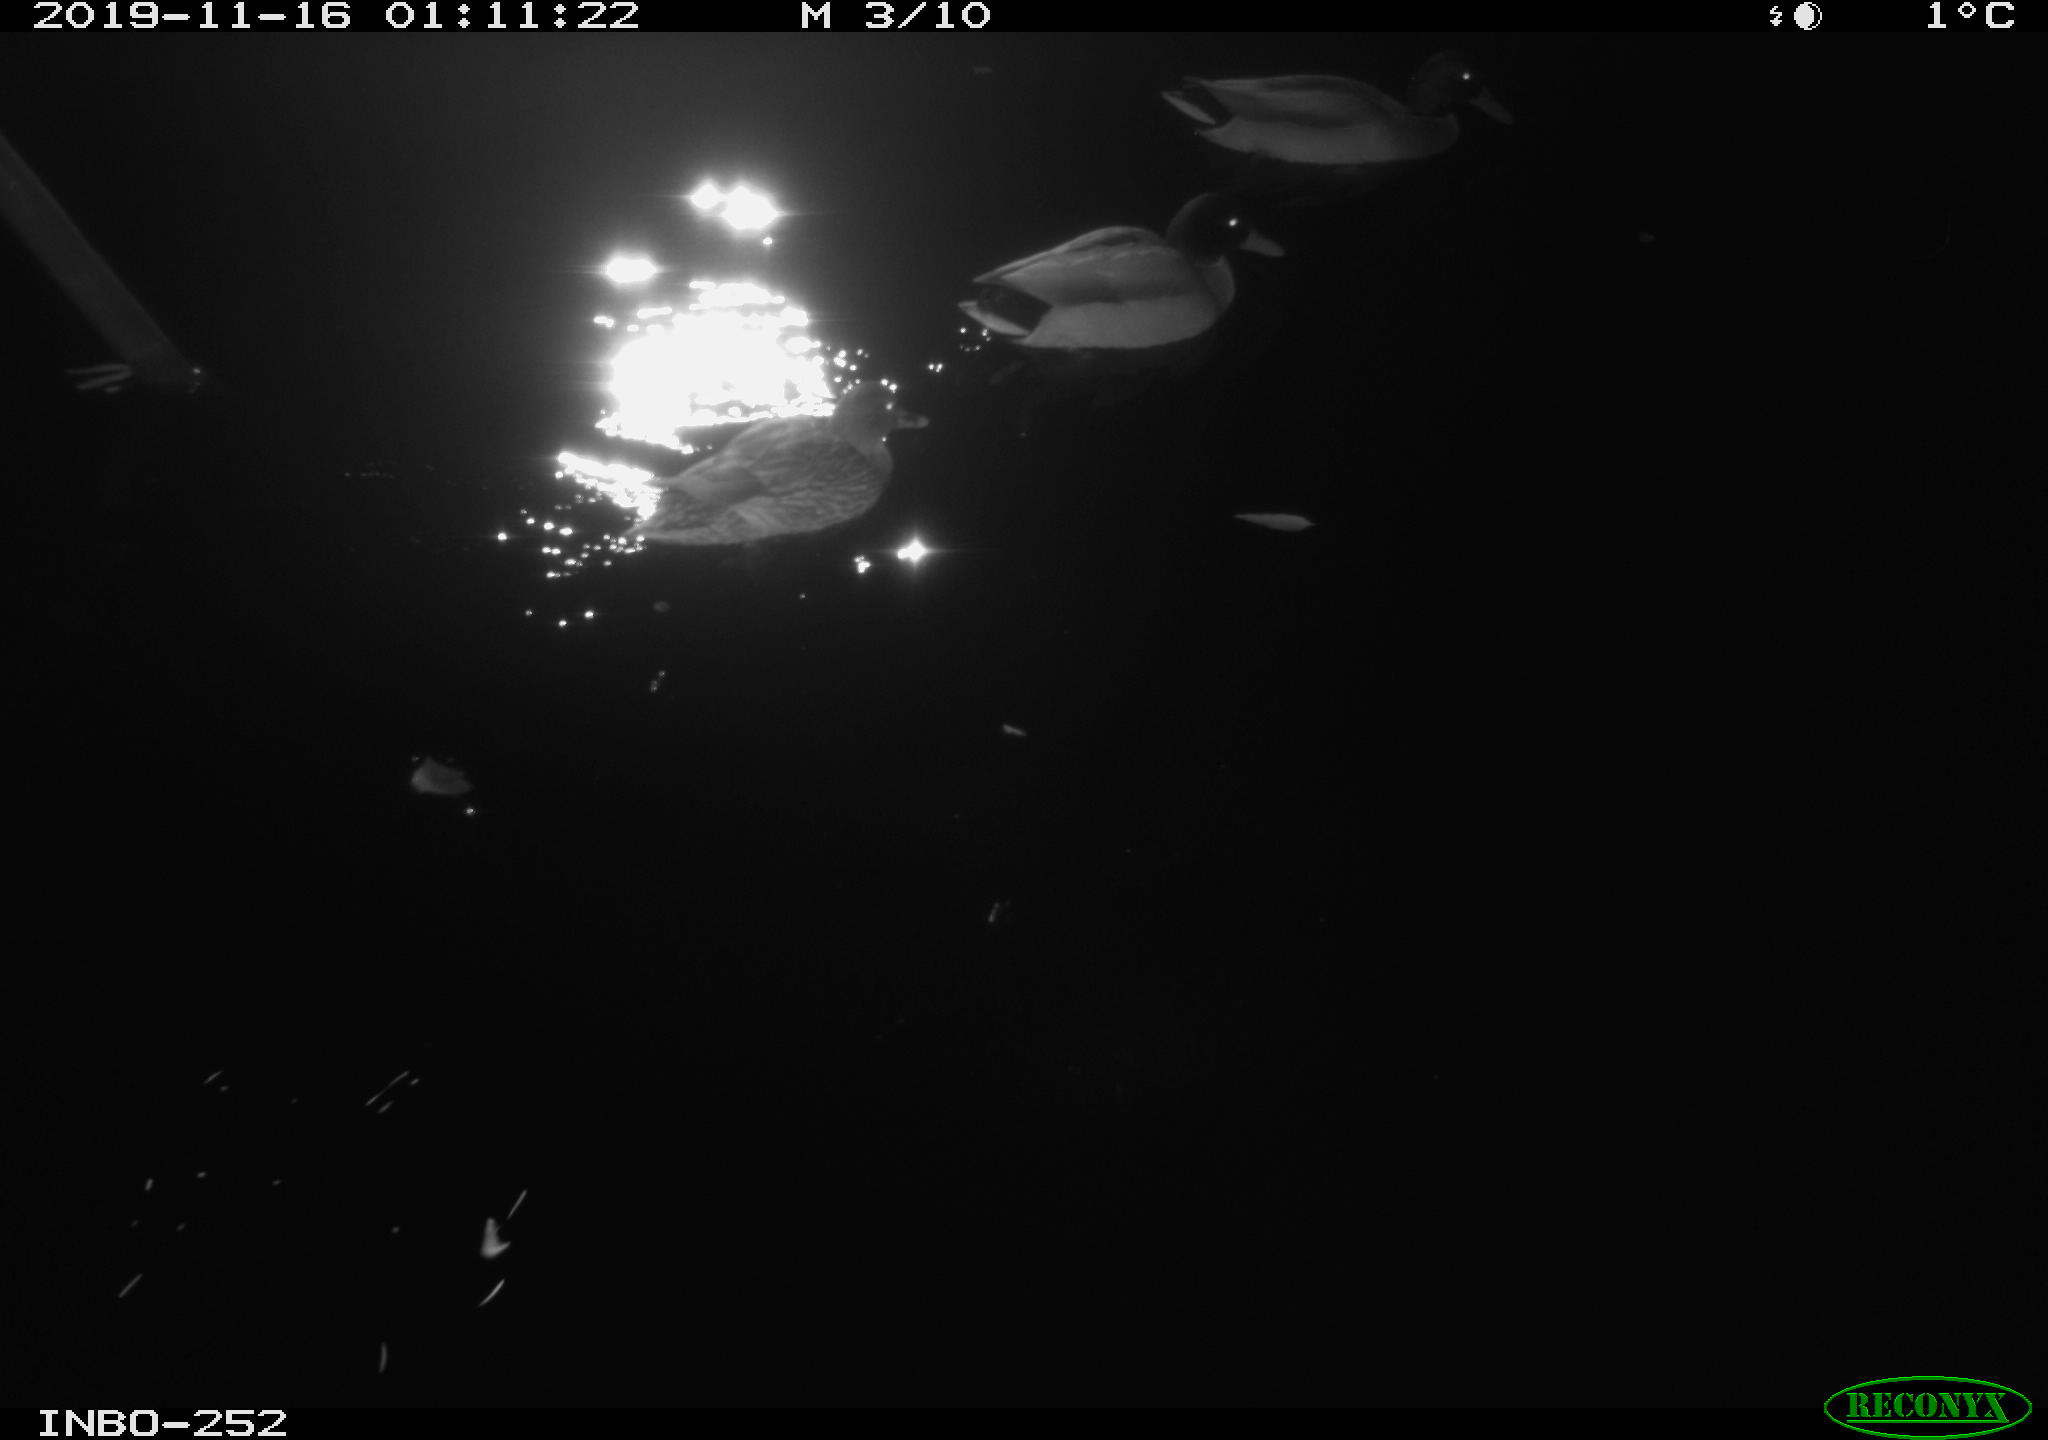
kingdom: Animalia
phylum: Chordata
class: Aves
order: Anseriformes
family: Anatidae
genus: Anas
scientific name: Anas platyrhynchos
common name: Mallard
